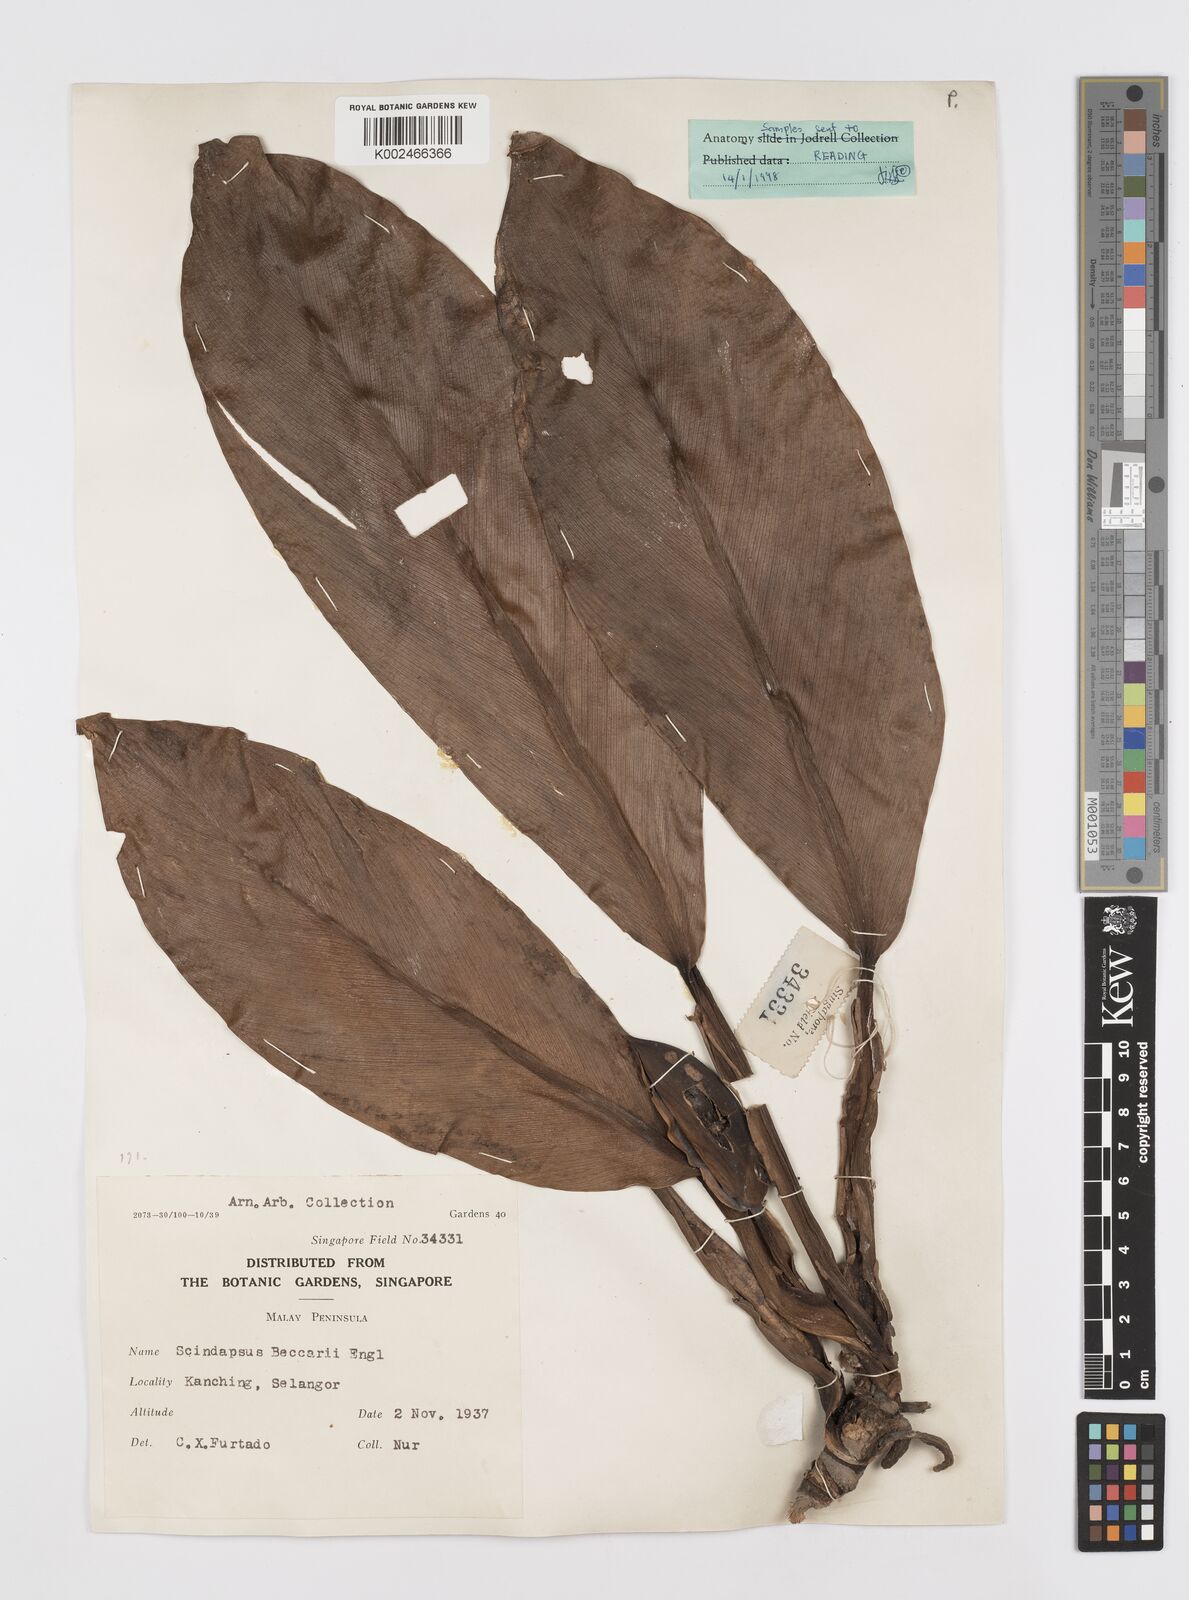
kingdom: Plantae
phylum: Tracheophyta
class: Liliopsida
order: Alismatales
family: Araceae
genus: Scindapsus
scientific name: Scindapsus beccarii
